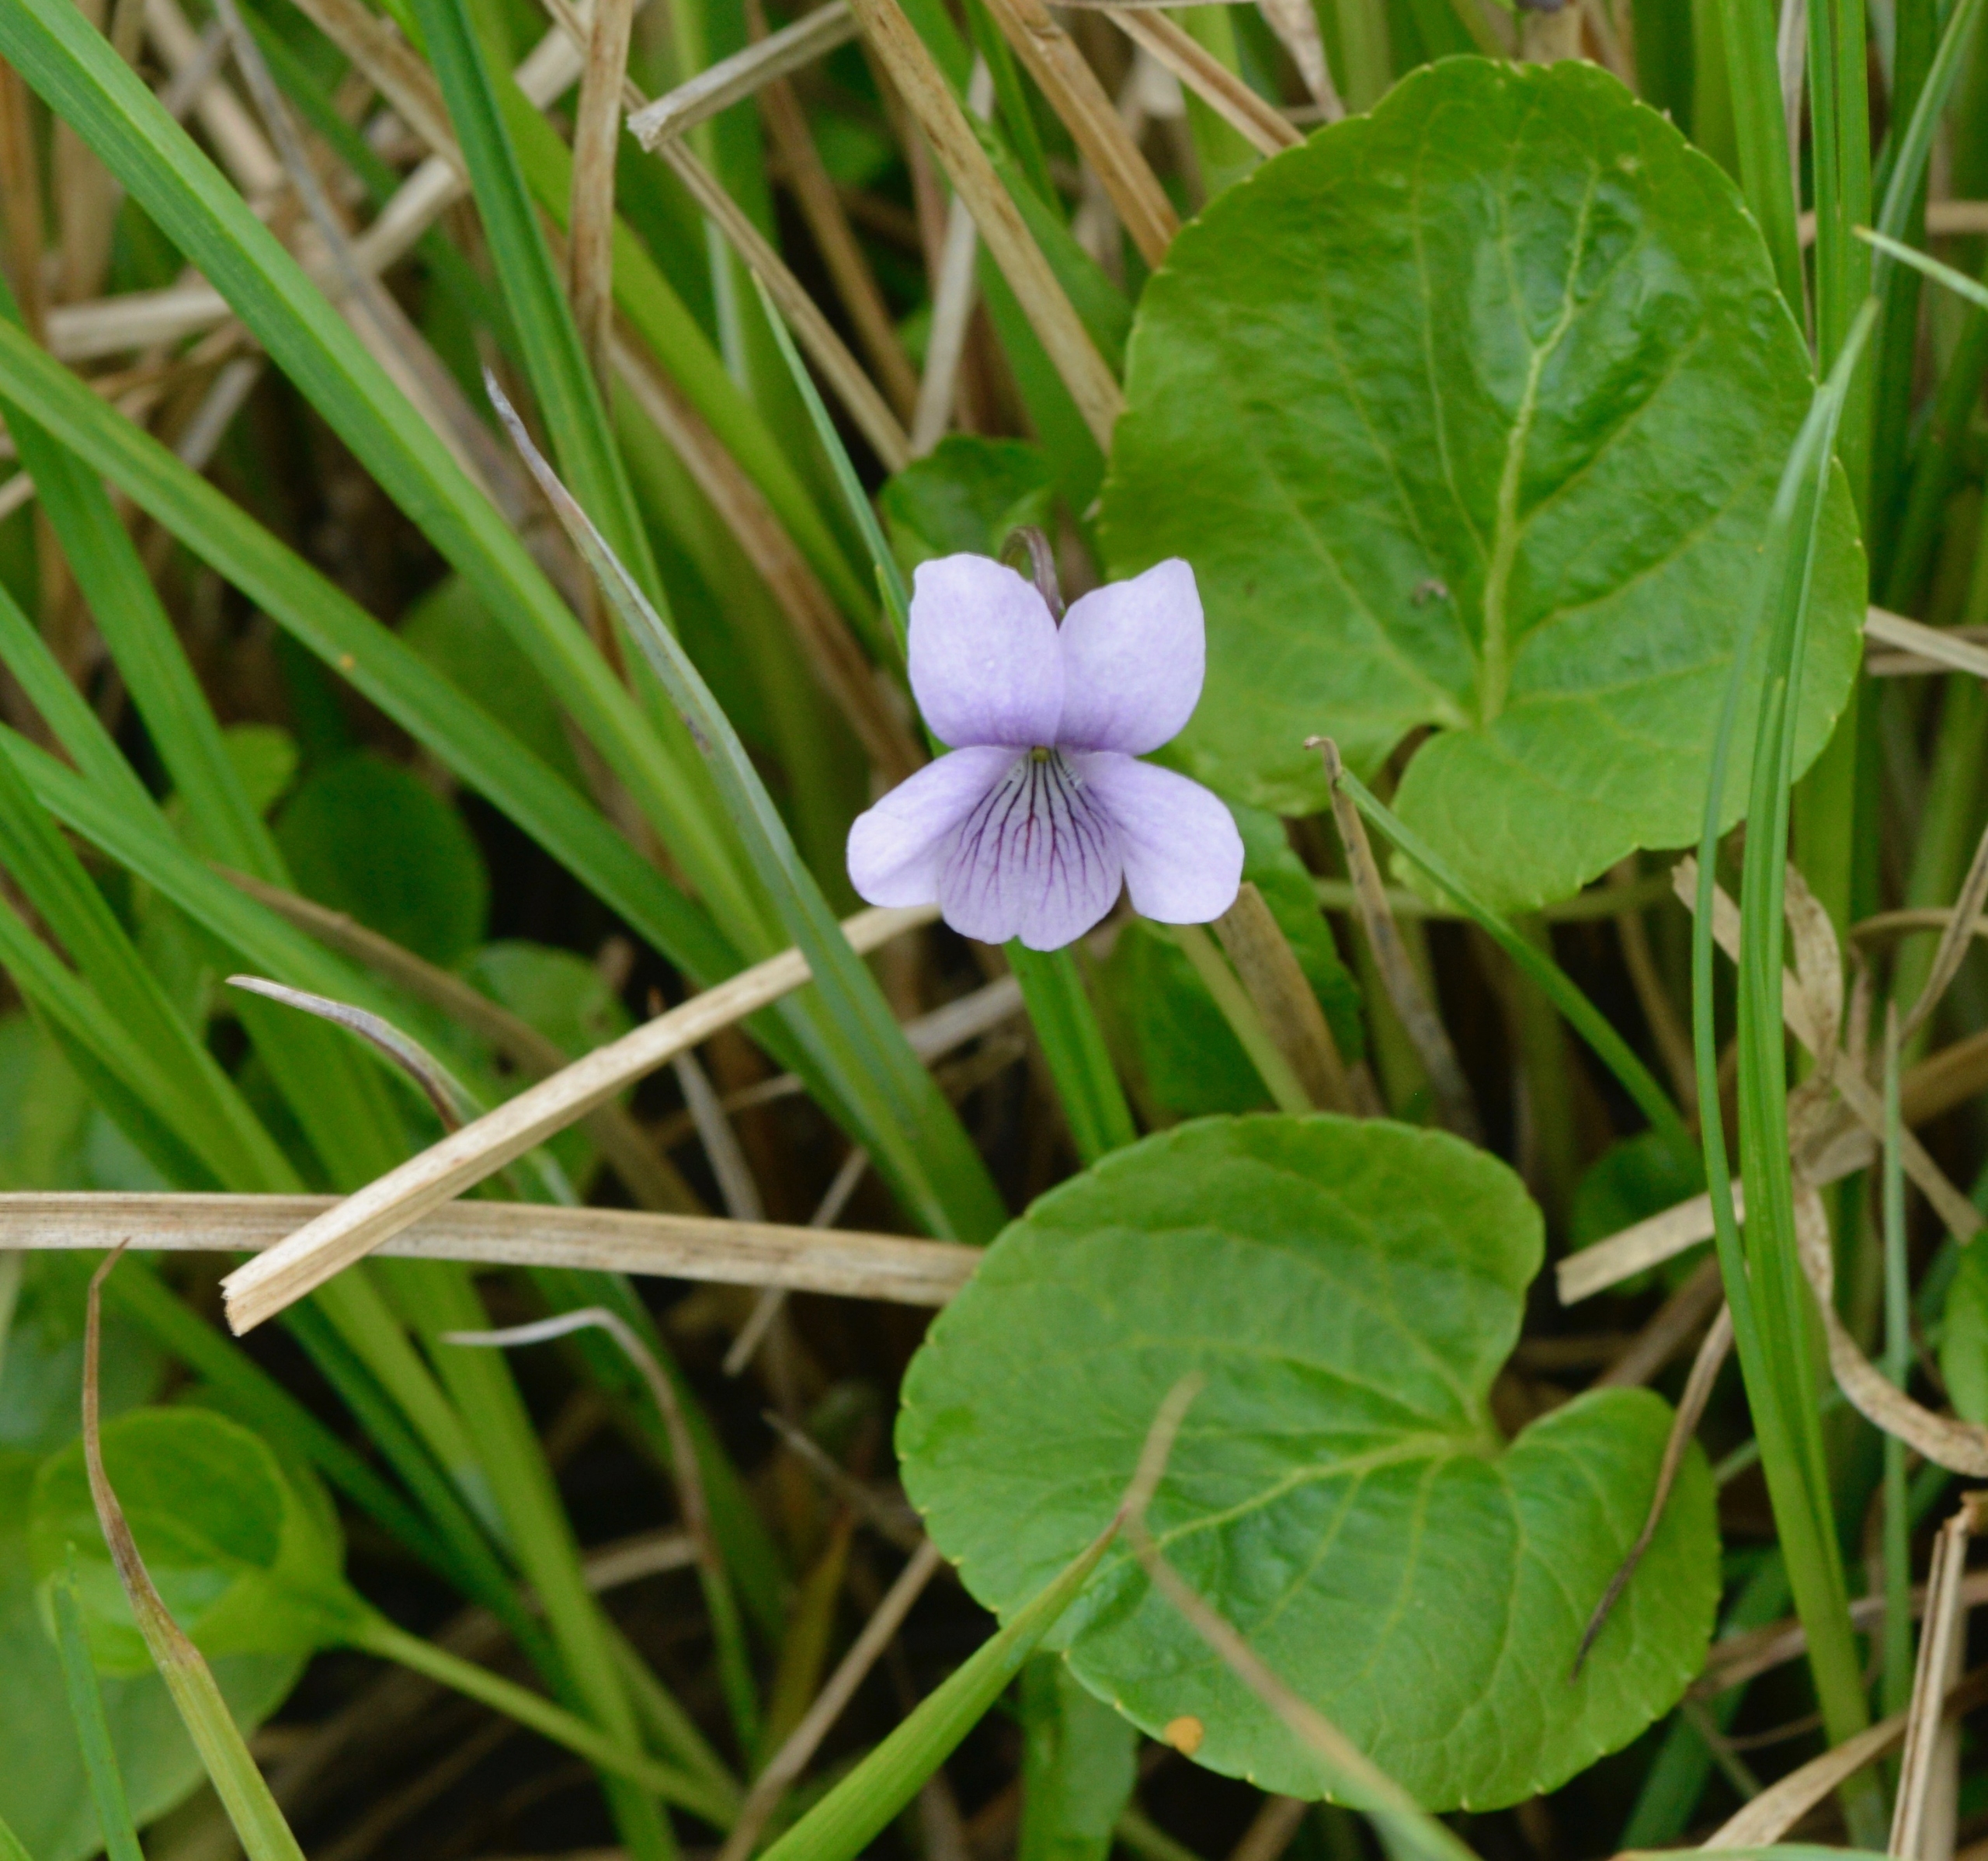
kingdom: Plantae
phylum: Tracheophyta
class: Magnoliopsida
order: Malpighiales
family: Violaceae
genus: Viola
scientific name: Viola palustris
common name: Eng-viol
